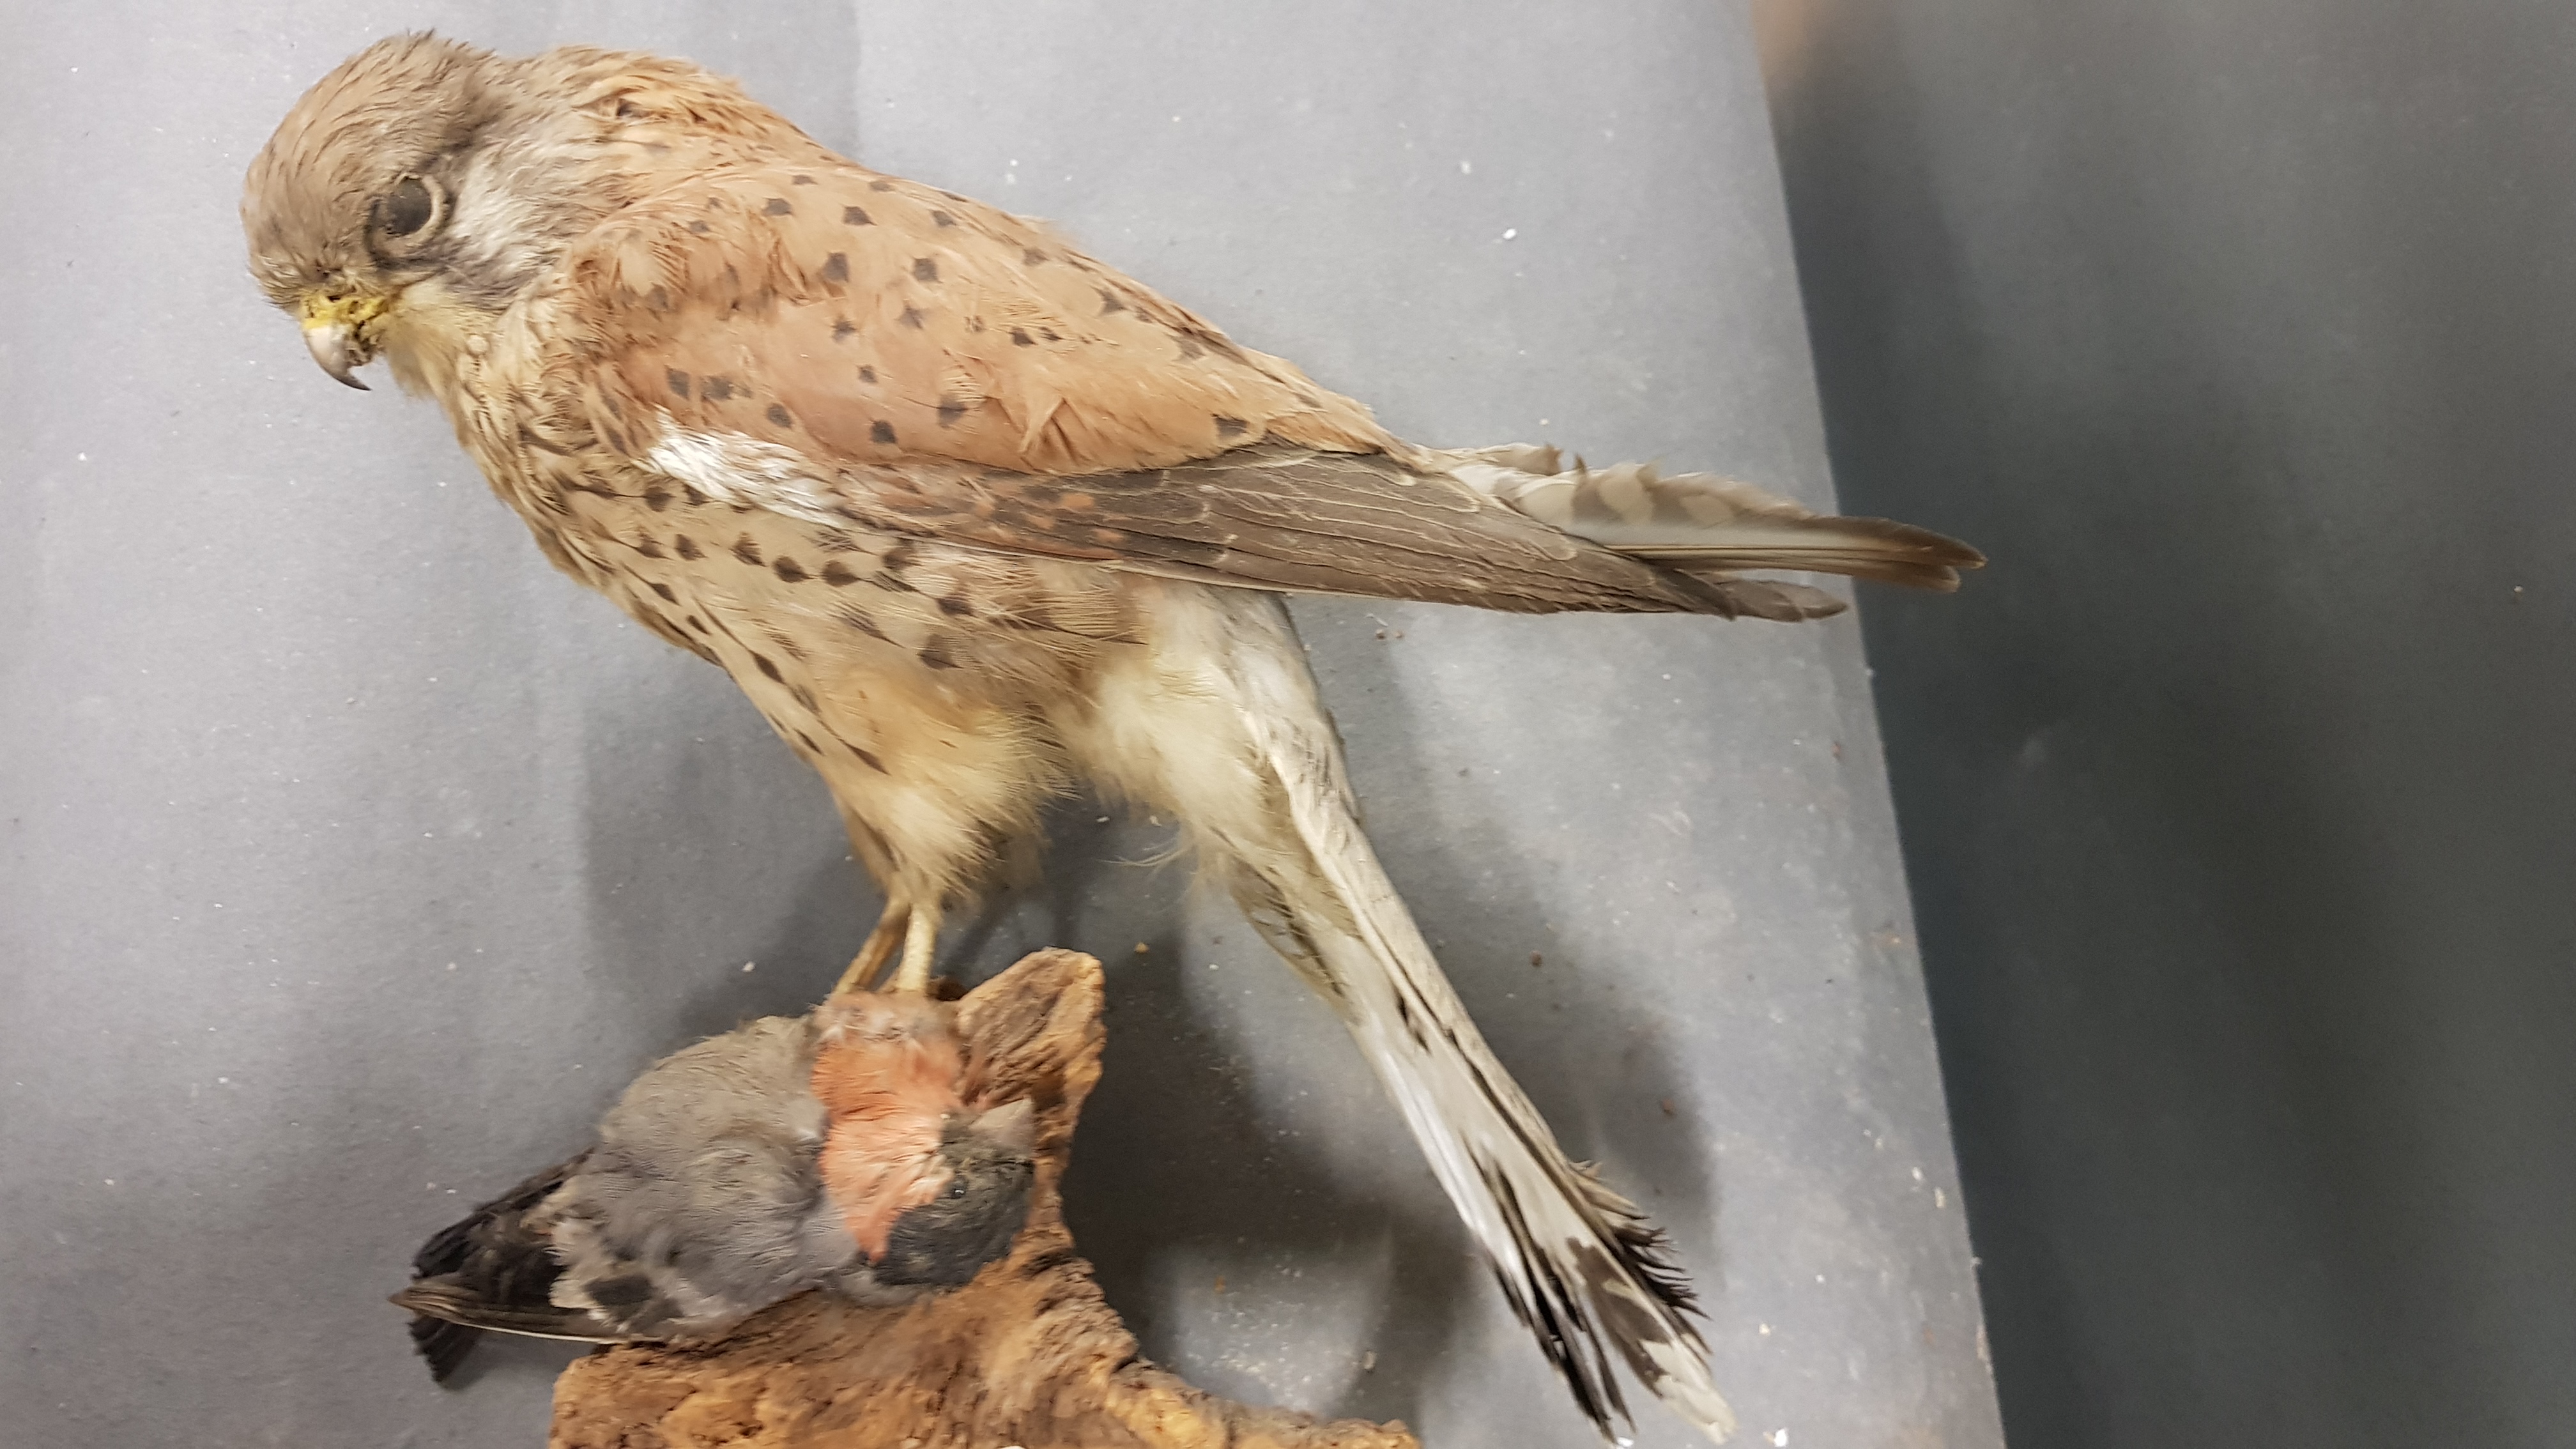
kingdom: Animalia
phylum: Chordata
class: Aves
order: Falconiformes
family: Falconidae
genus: Falco
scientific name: Falco tinnunculus
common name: Common kestrel
